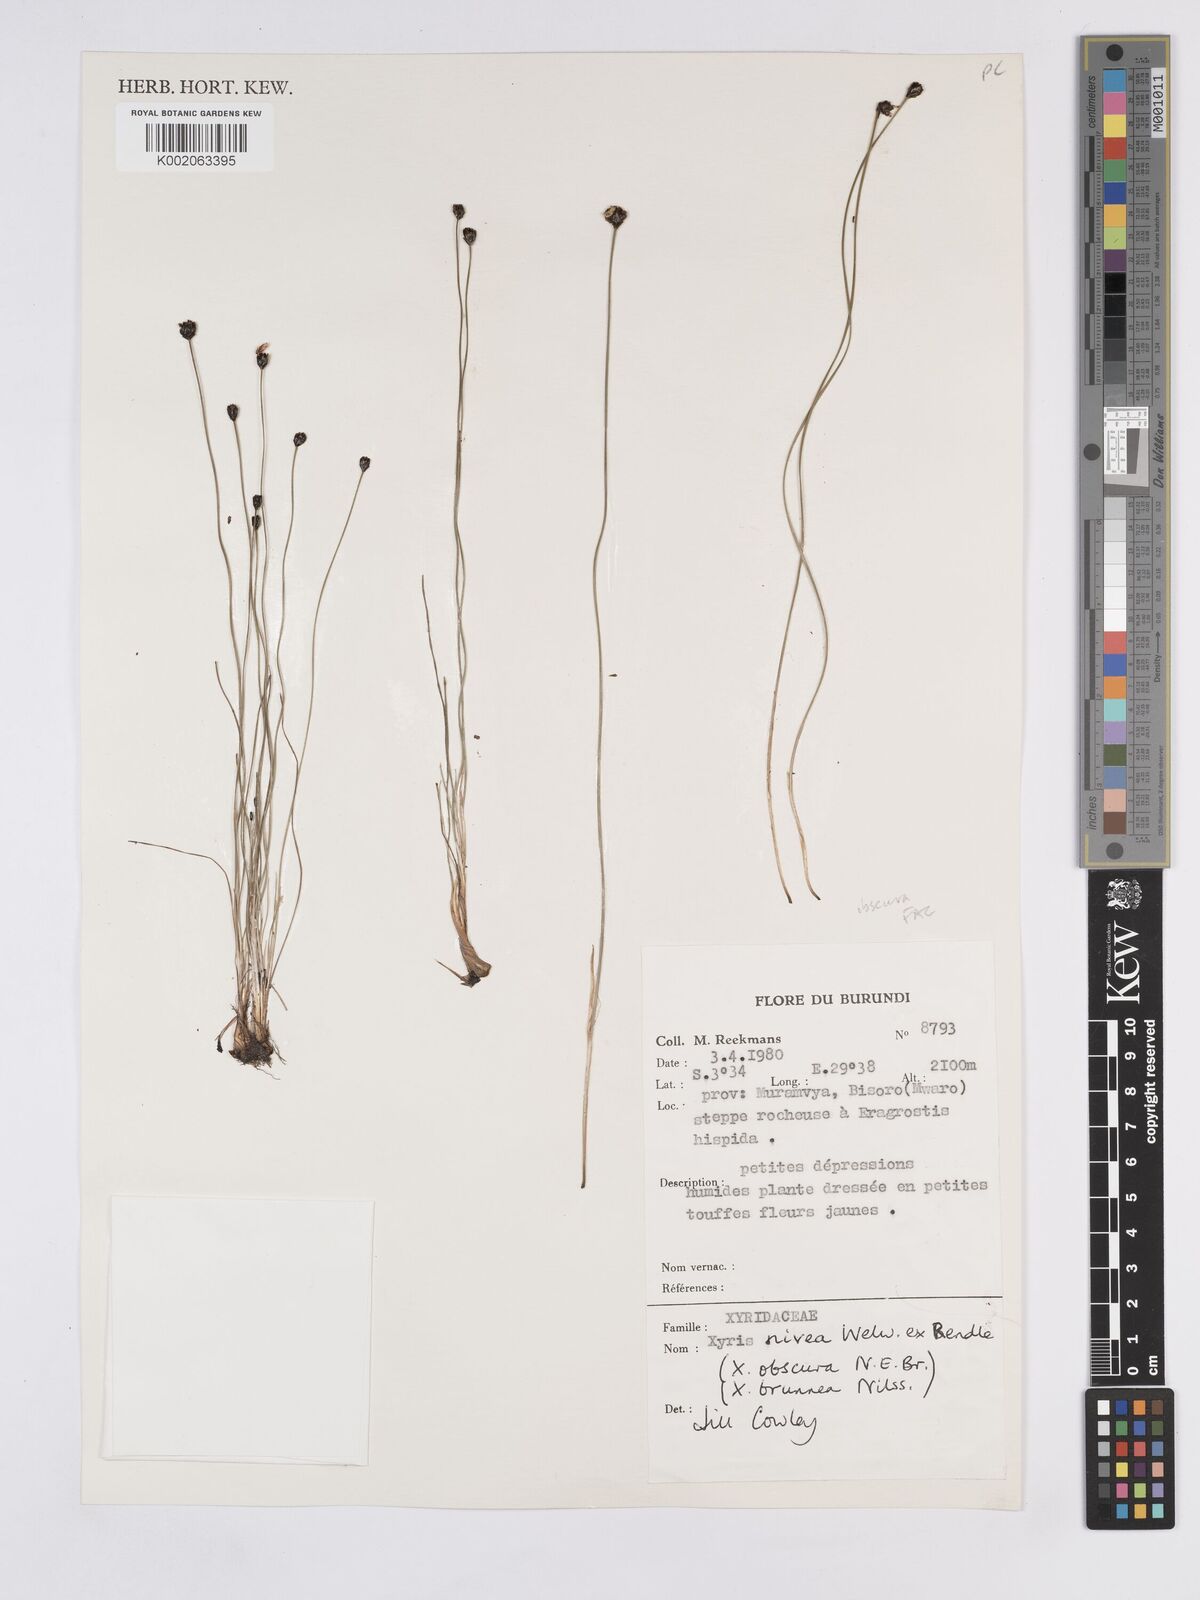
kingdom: Plantae
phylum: Tracheophyta
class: Liliopsida
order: Poales
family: Xyridaceae
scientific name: Xyridaceae
